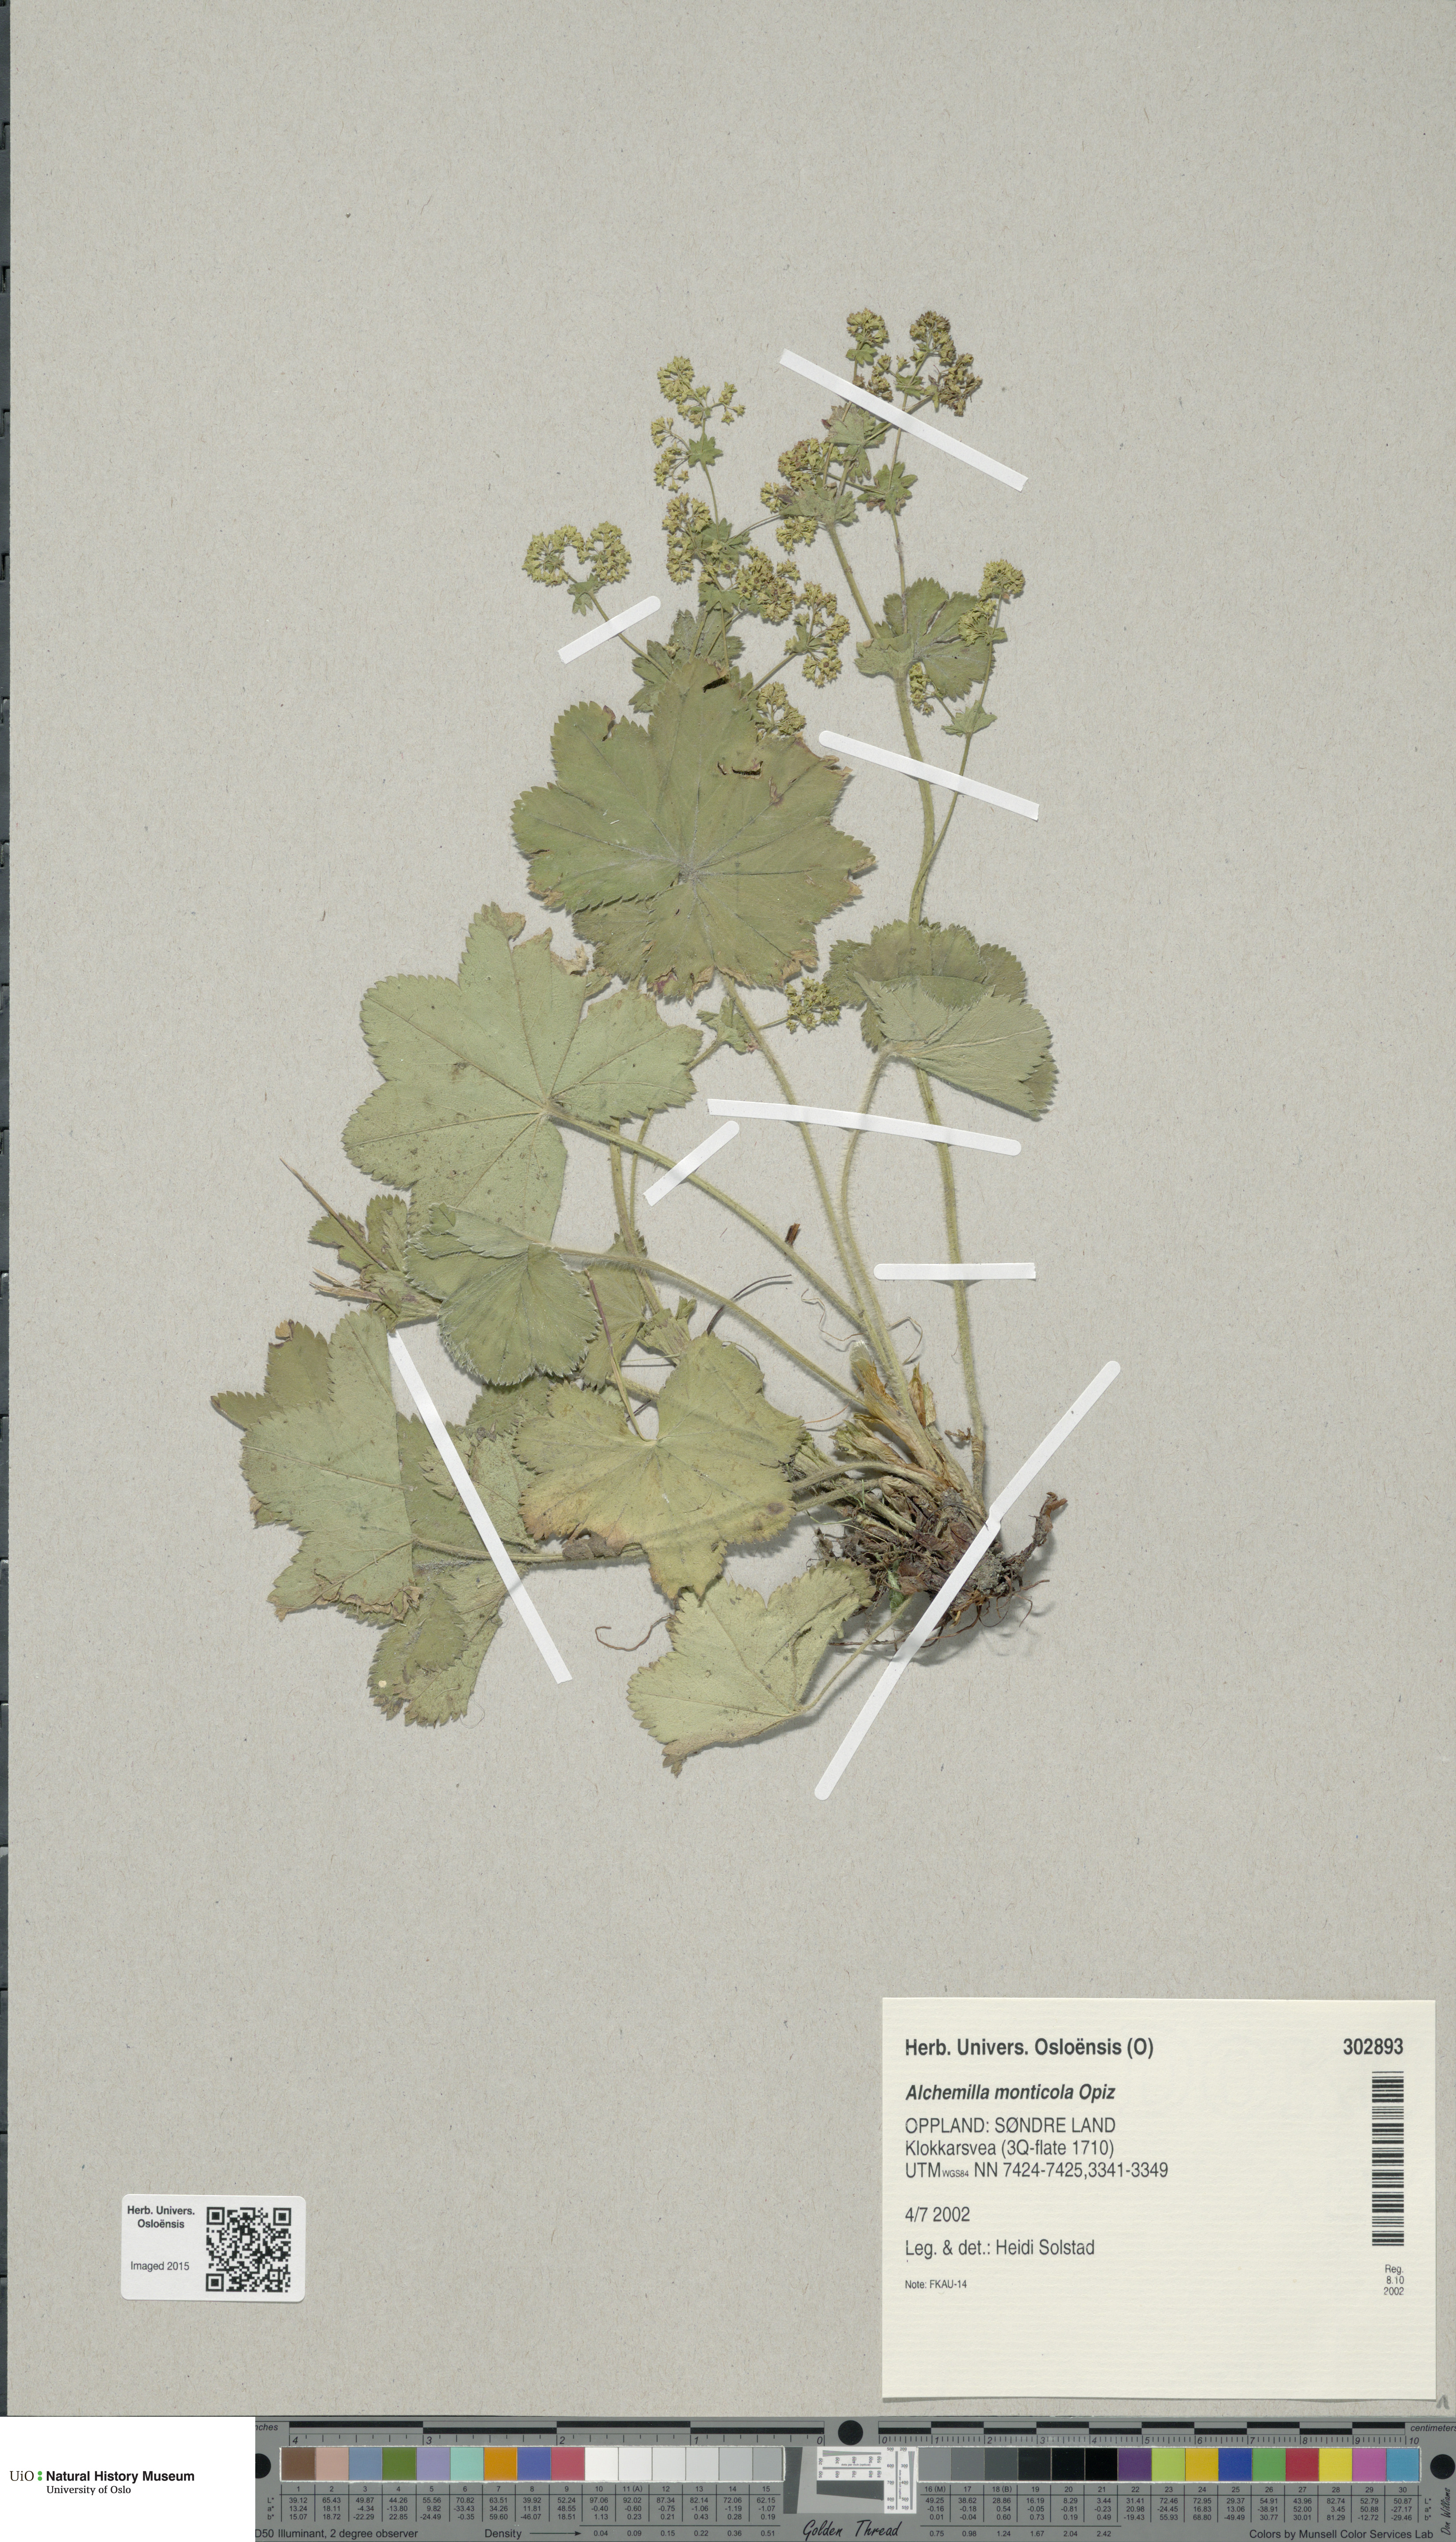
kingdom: Plantae
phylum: Tracheophyta
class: Magnoliopsida
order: Rosales
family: Rosaceae
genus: Alchemilla
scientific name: Alchemilla monticola
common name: Hairy lady's mantle
